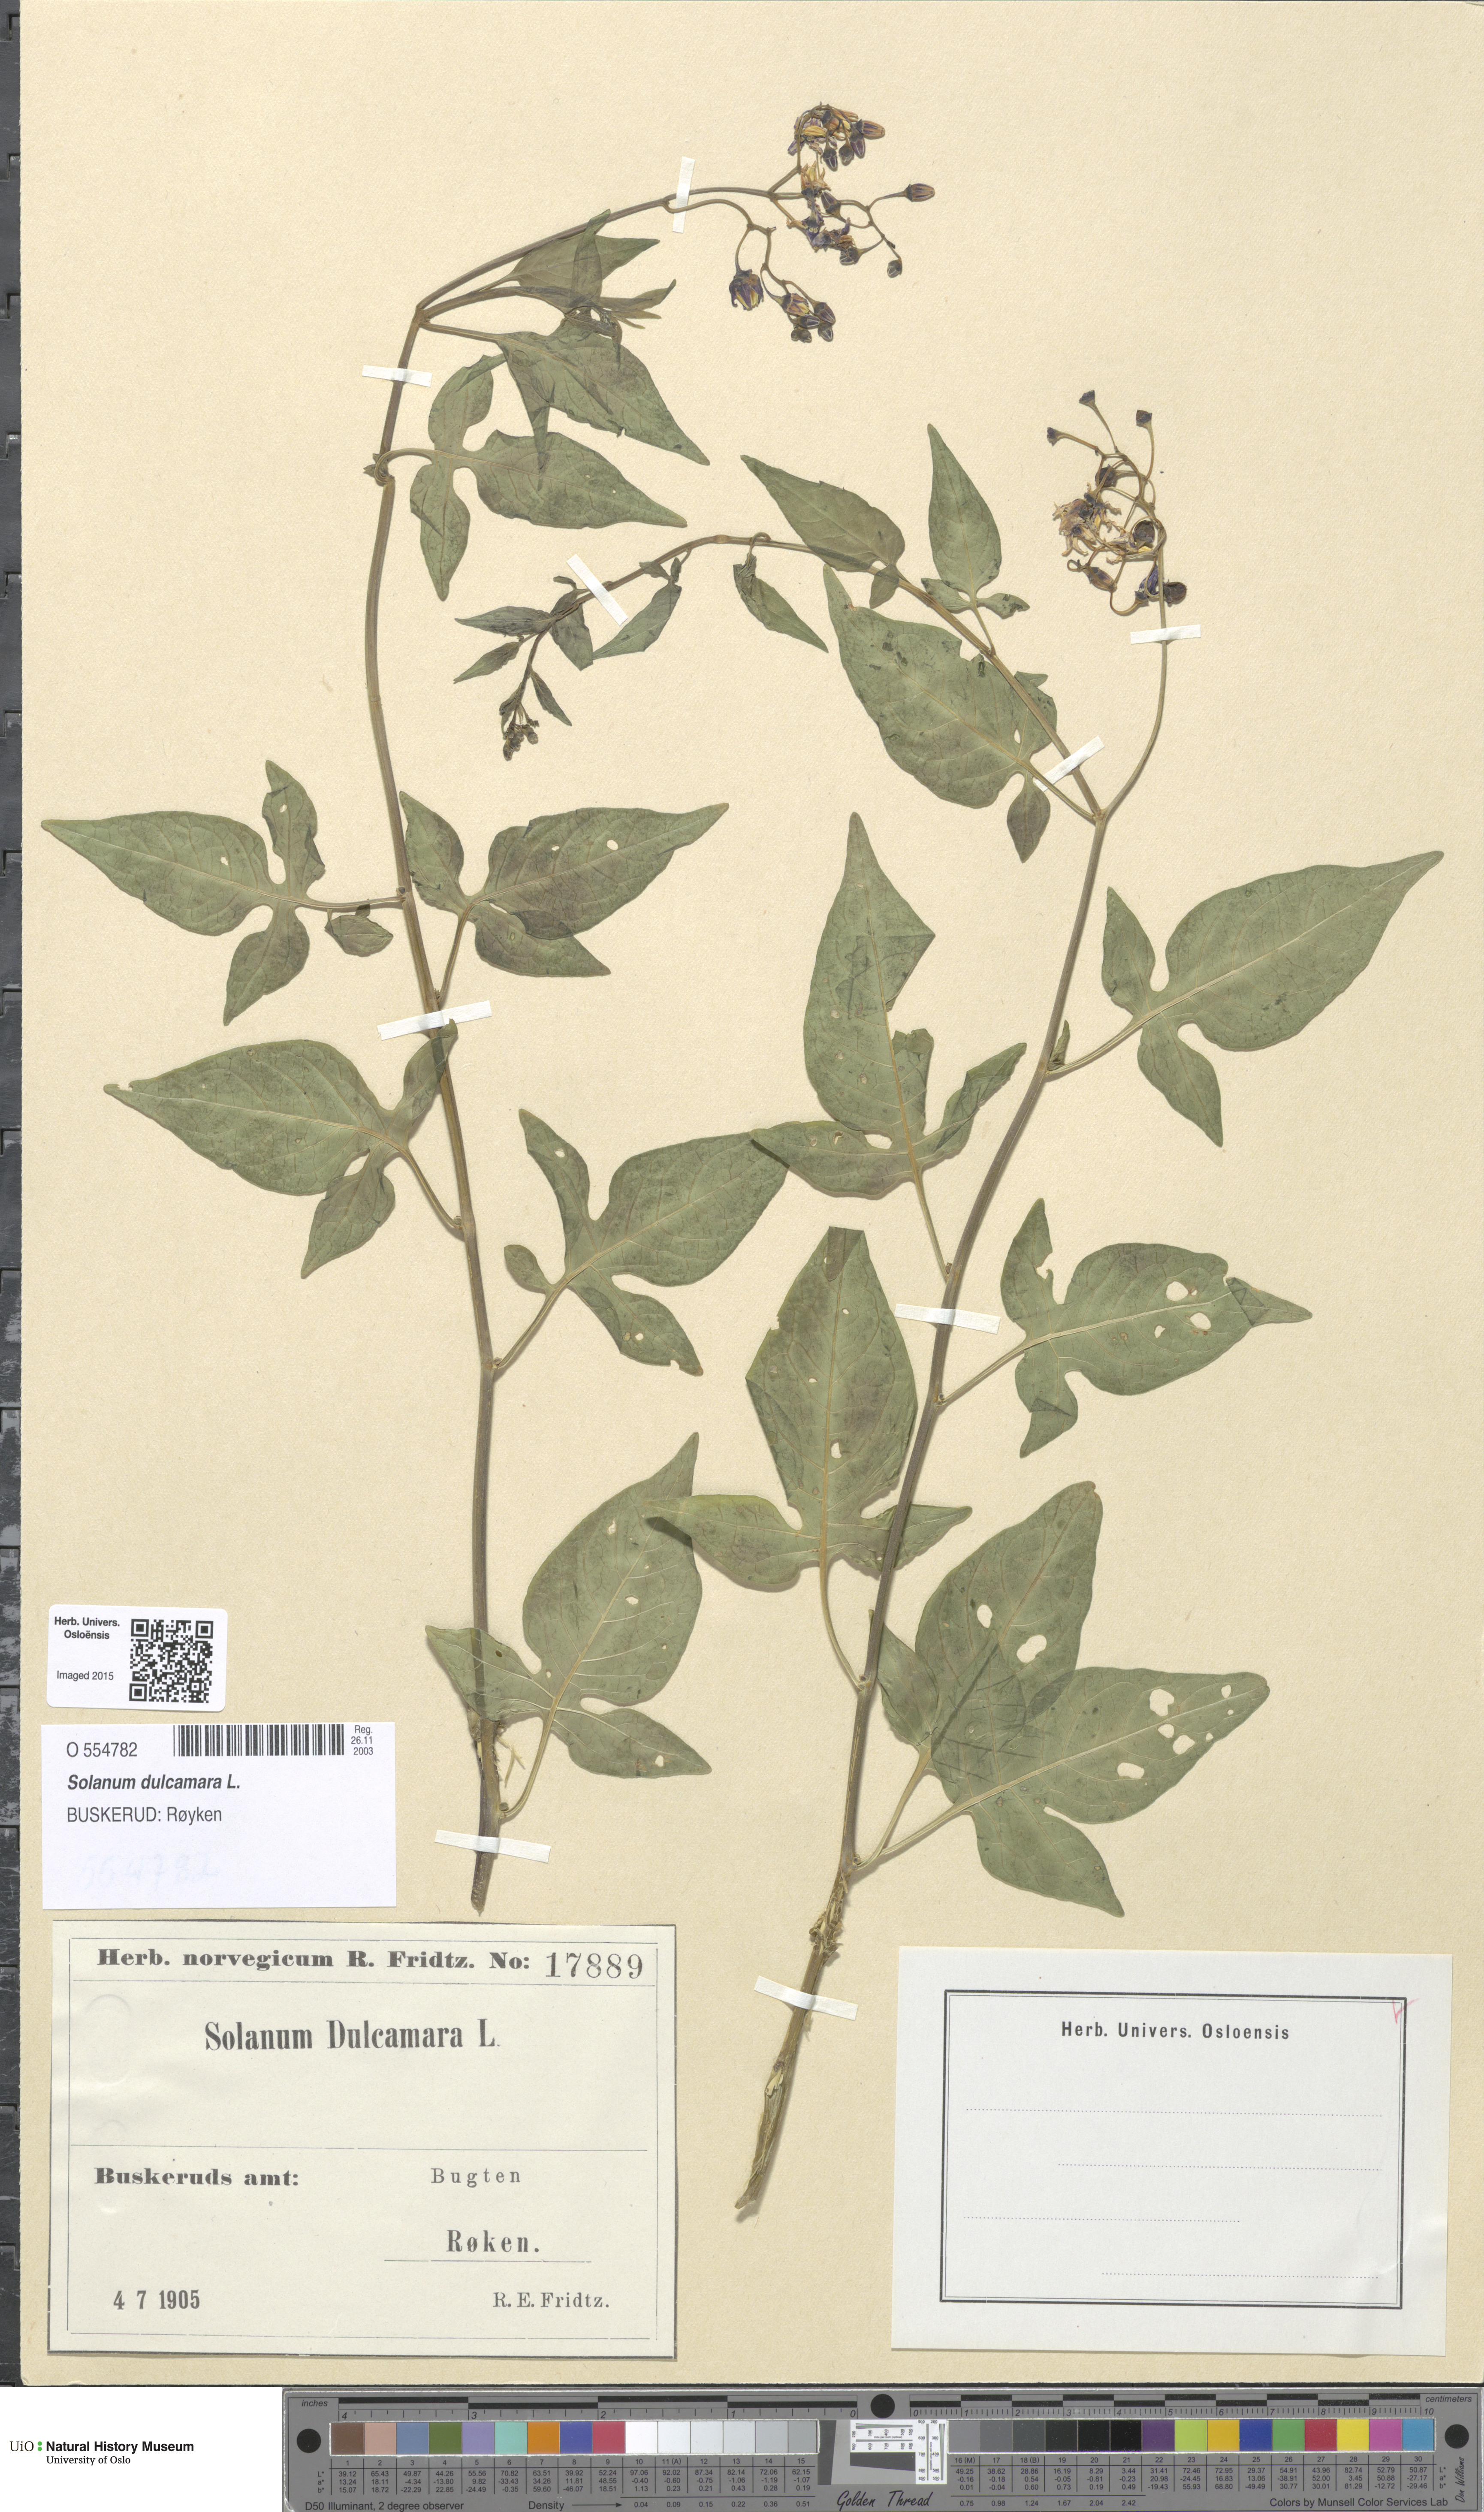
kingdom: Plantae
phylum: Tracheophyta
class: Magnoliopsida
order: Solanales
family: Solanaceae
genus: Solanum
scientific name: Solanum dulcamara
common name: Climbing nightshade
